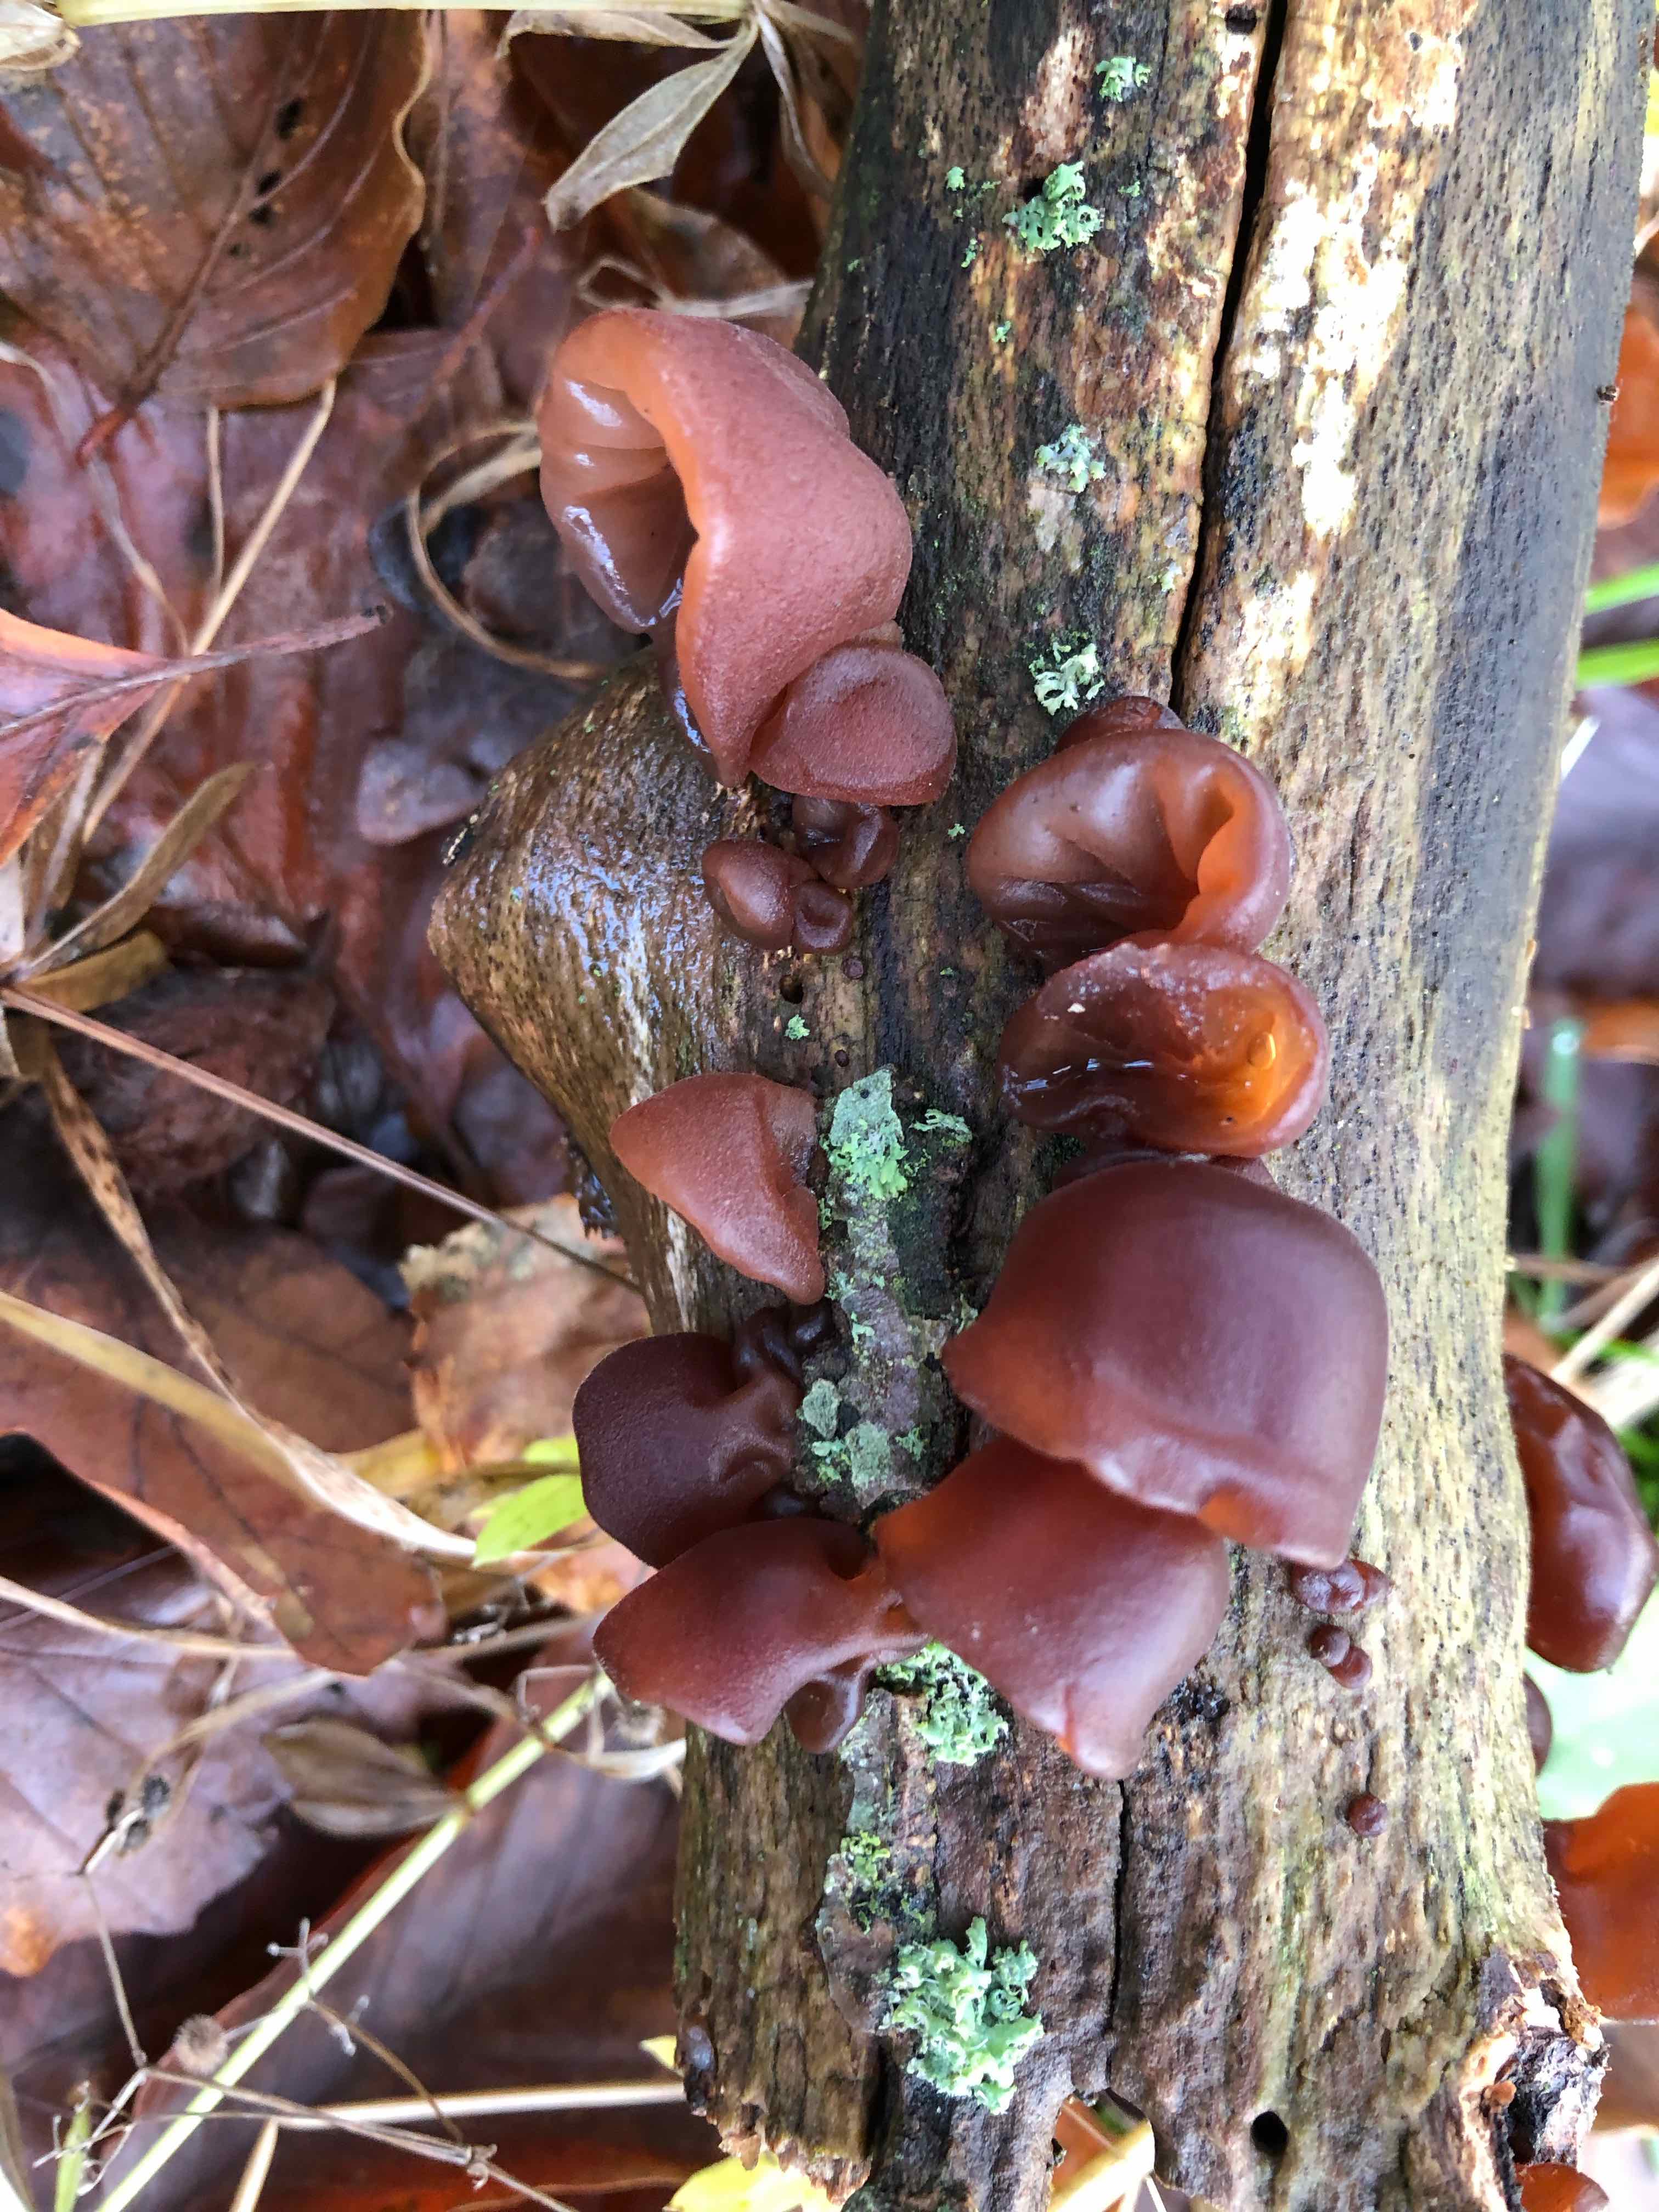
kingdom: Fungi
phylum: Basidiomycota
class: Agaricomycetes
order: Auriculariales
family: Auriculariaceae
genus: Auricularia
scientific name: Auricularia auricula-judae
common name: almindelig judasøre
